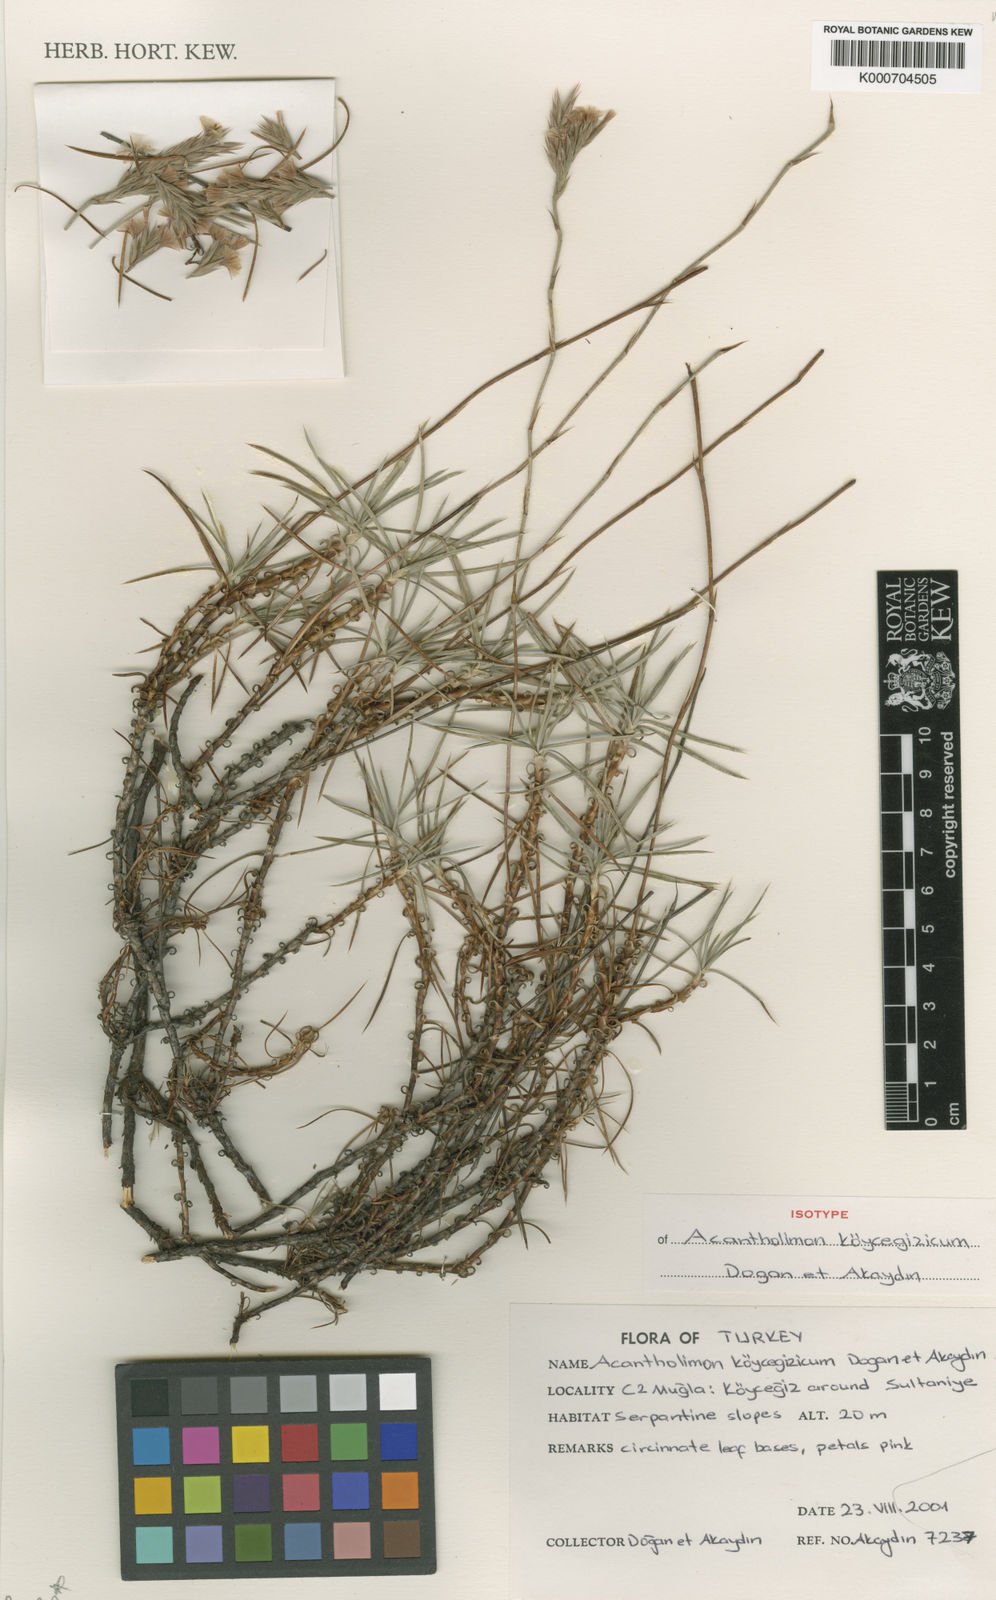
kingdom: Plantae
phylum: Tracheophyta
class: Magnoliopsida
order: Caryophyllales
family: Plumbaginaceae
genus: Acantholimon
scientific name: Acantholimon koeycegizicum
